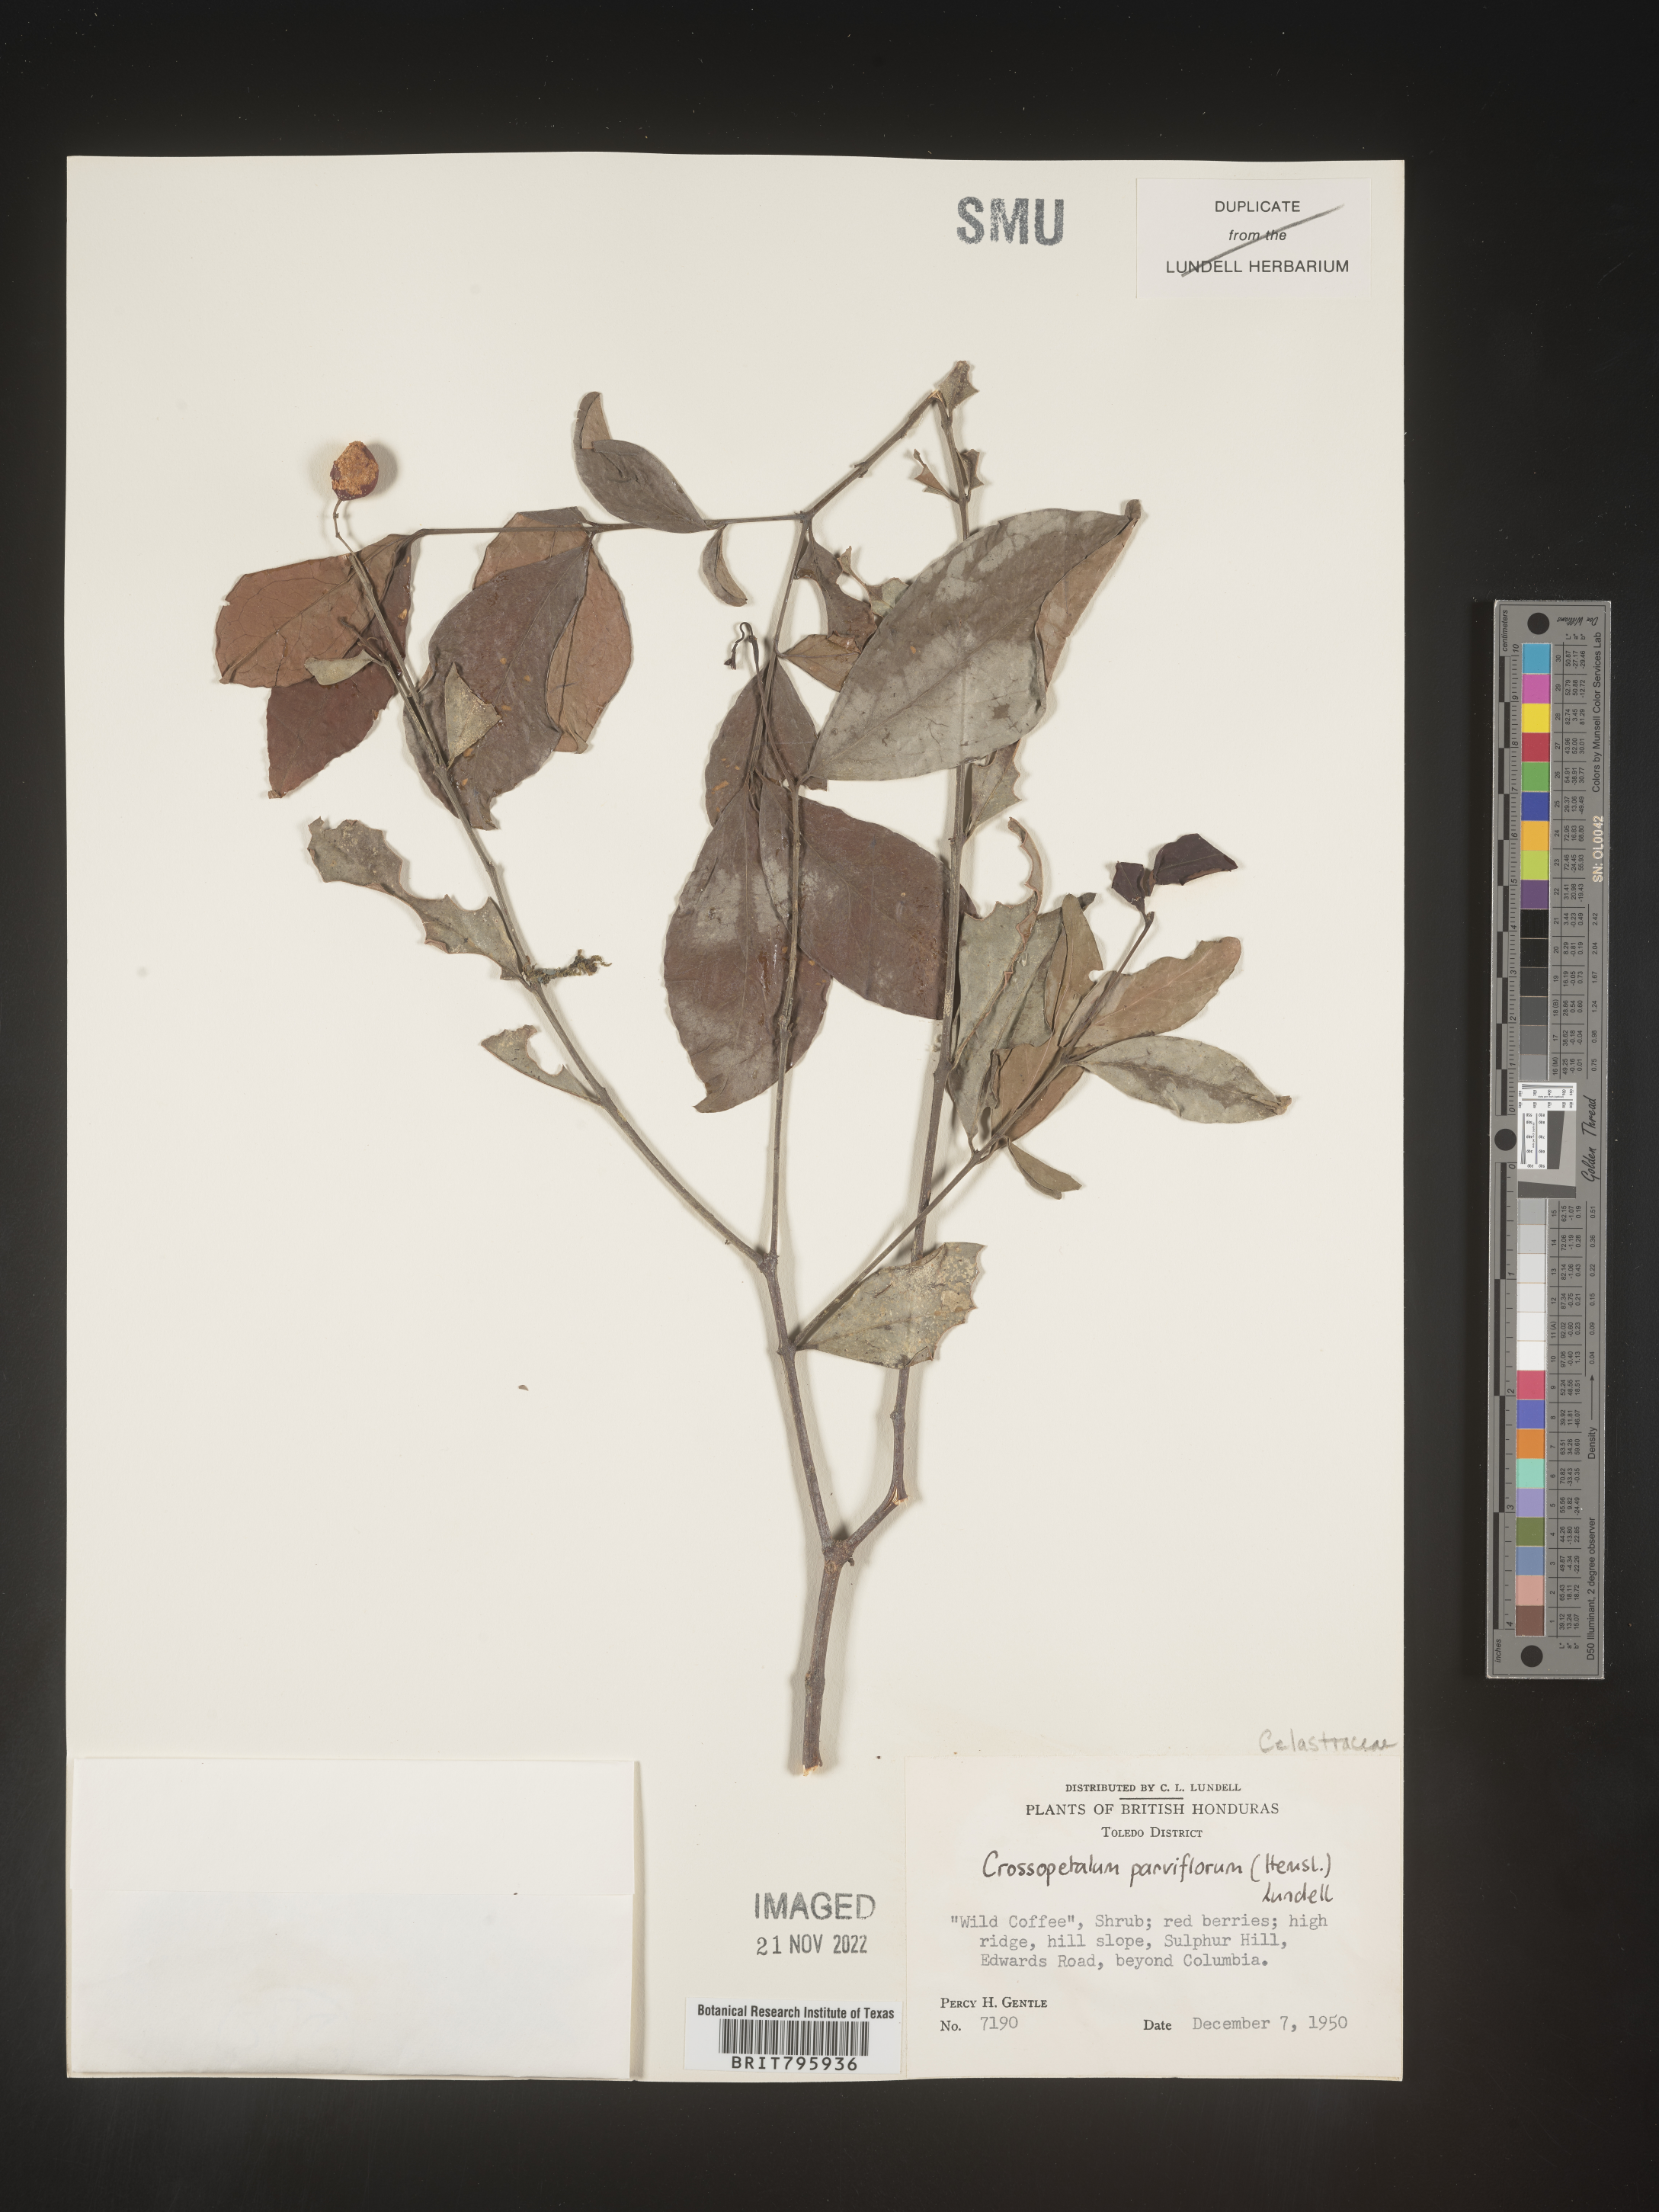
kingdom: Plantae
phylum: Tracheophyta
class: Magnoliopsida
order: Celastrales
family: Celastraceae
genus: Crossopetalum
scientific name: Crossopetalum parviflorum
